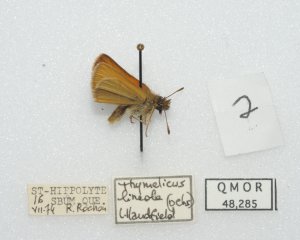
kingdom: Animalia
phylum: Arthropoda
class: Insecta
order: Lepidoptera
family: Hesperiidae
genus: Thymelicus
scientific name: Thymelicus lineola
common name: European Skipper
